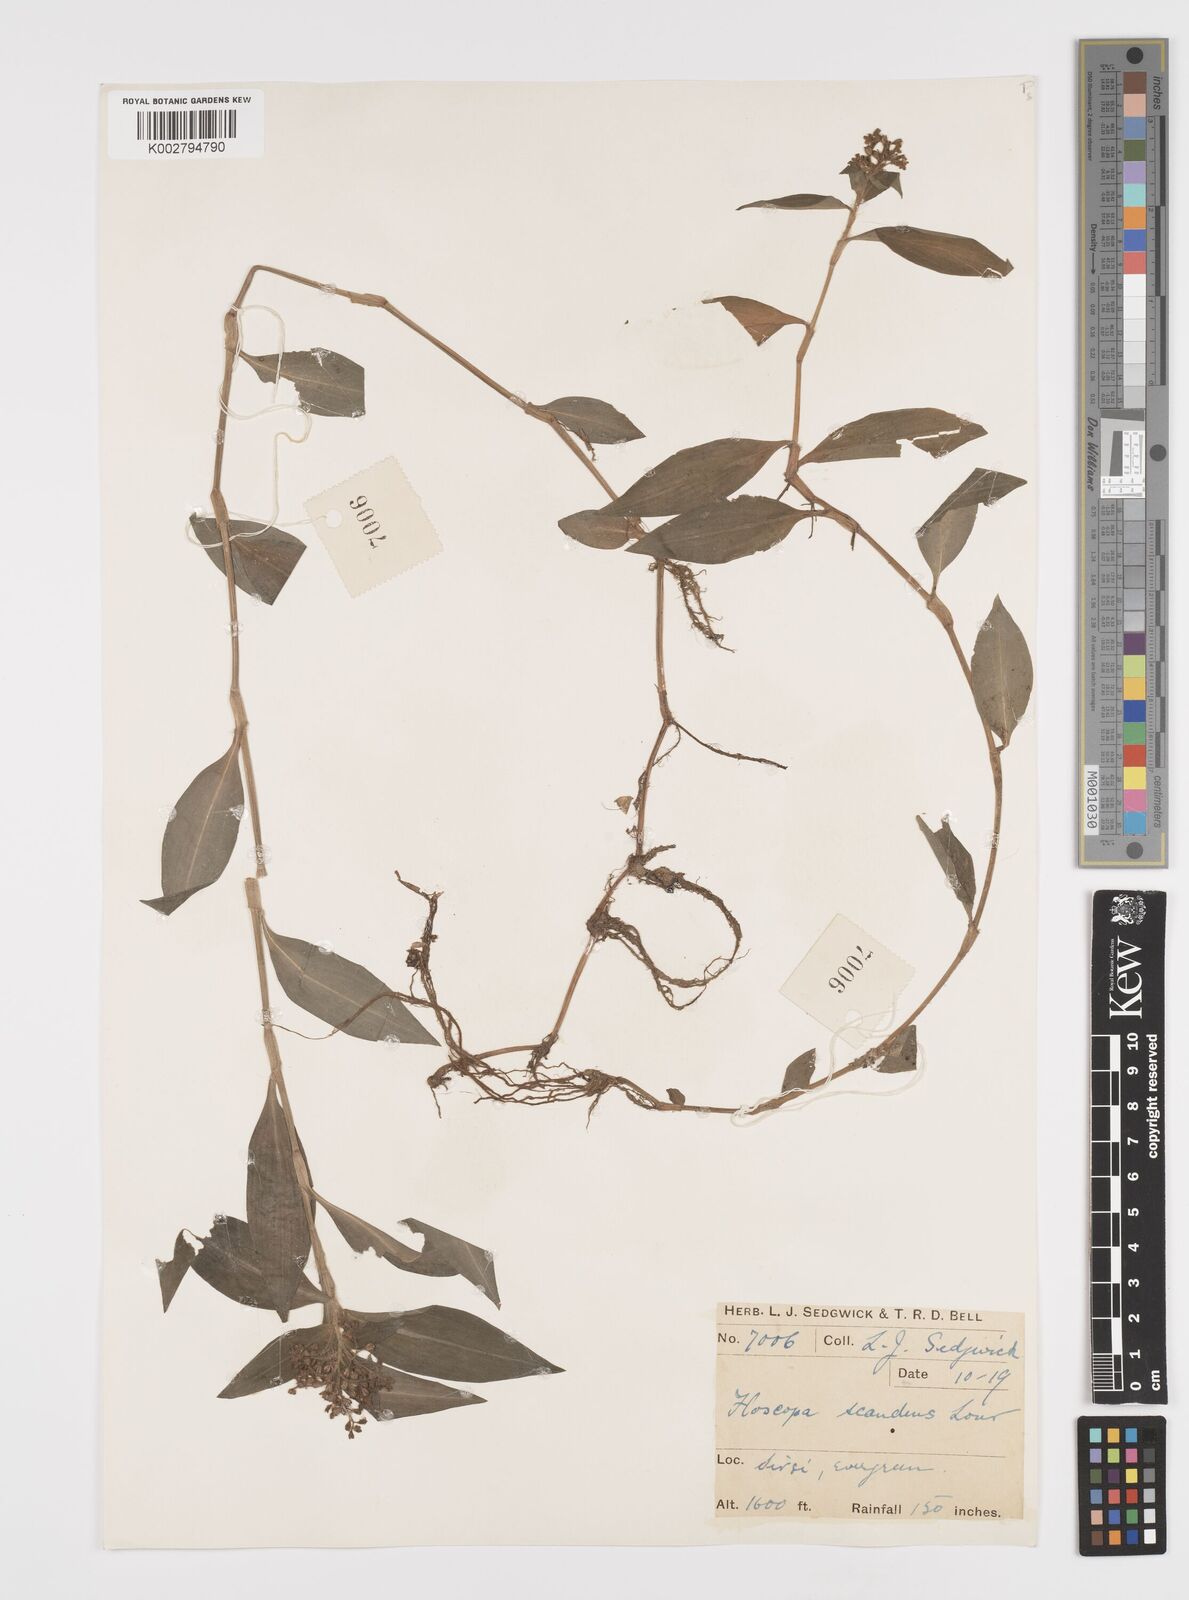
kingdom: Plantae
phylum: Tracheophyta
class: Liliopsida
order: Commelinales
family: Commelinaceae
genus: Floscopa
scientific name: Floscopa scandens
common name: Climbing flower cup
